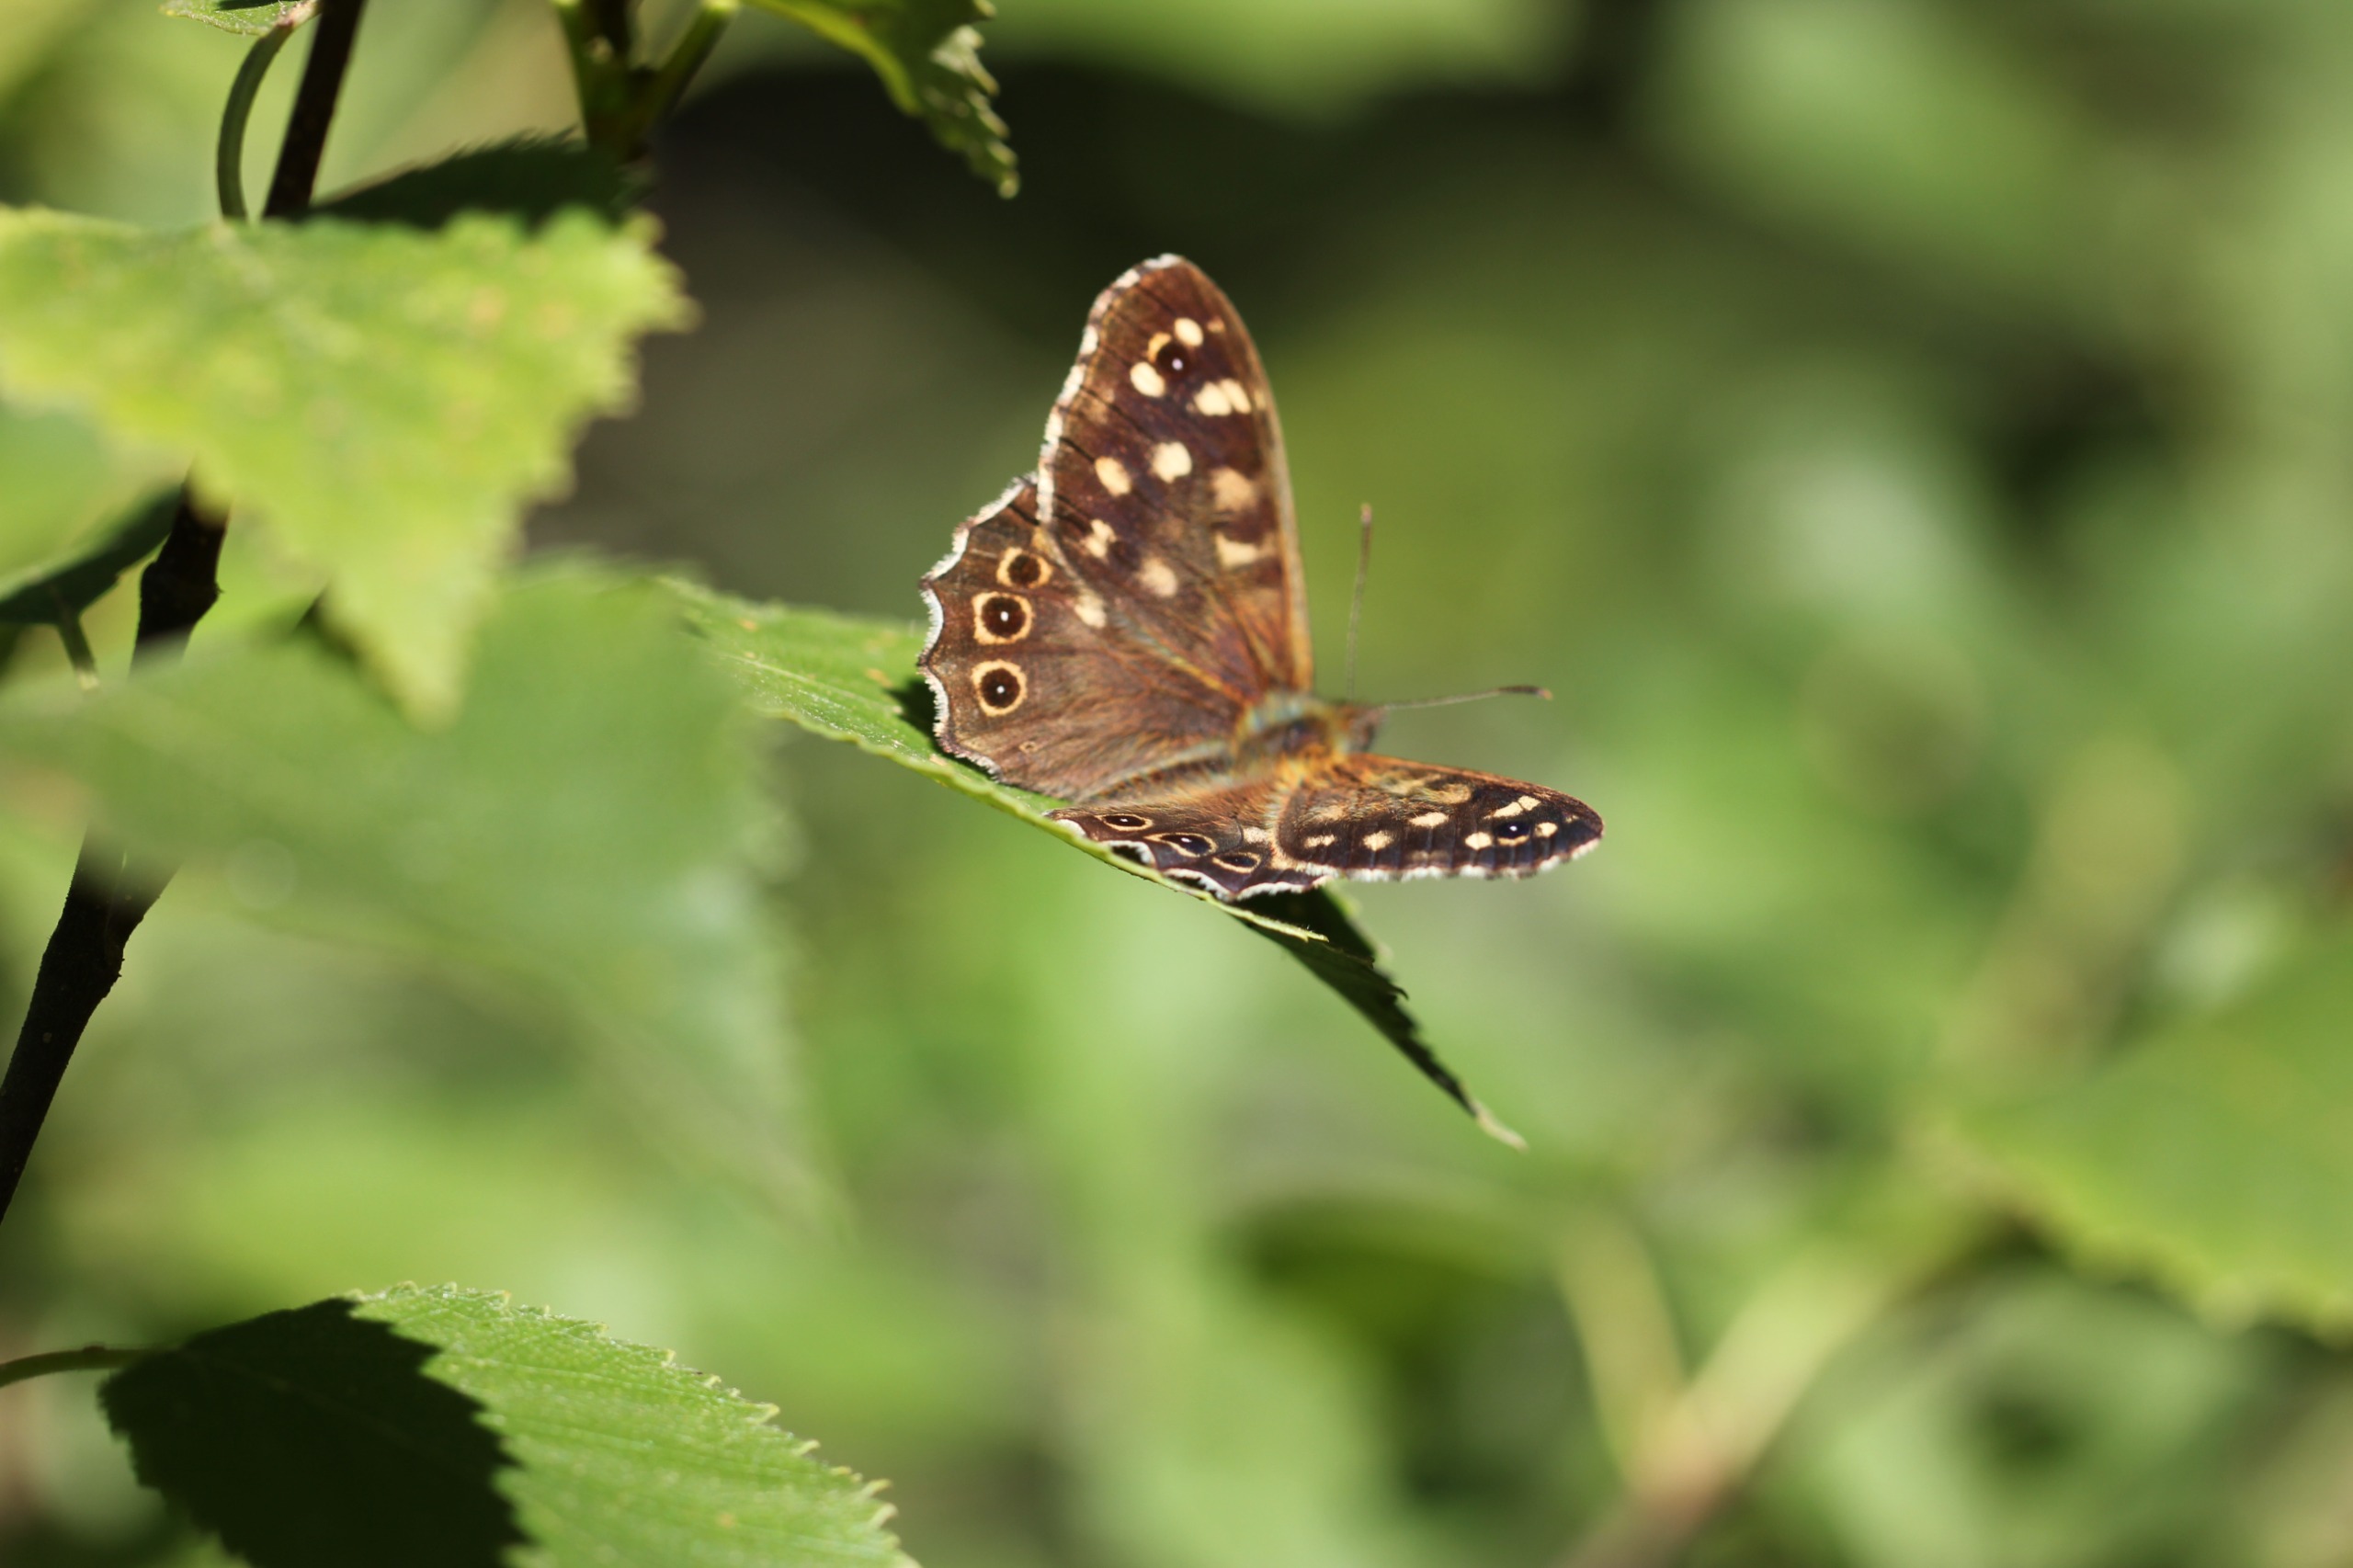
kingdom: Animalia
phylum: Arthropoda
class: Insecta
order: Lepidoptera
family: Nymphalidae
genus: Pararge
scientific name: Pararge aegeria
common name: Skovrandøje
